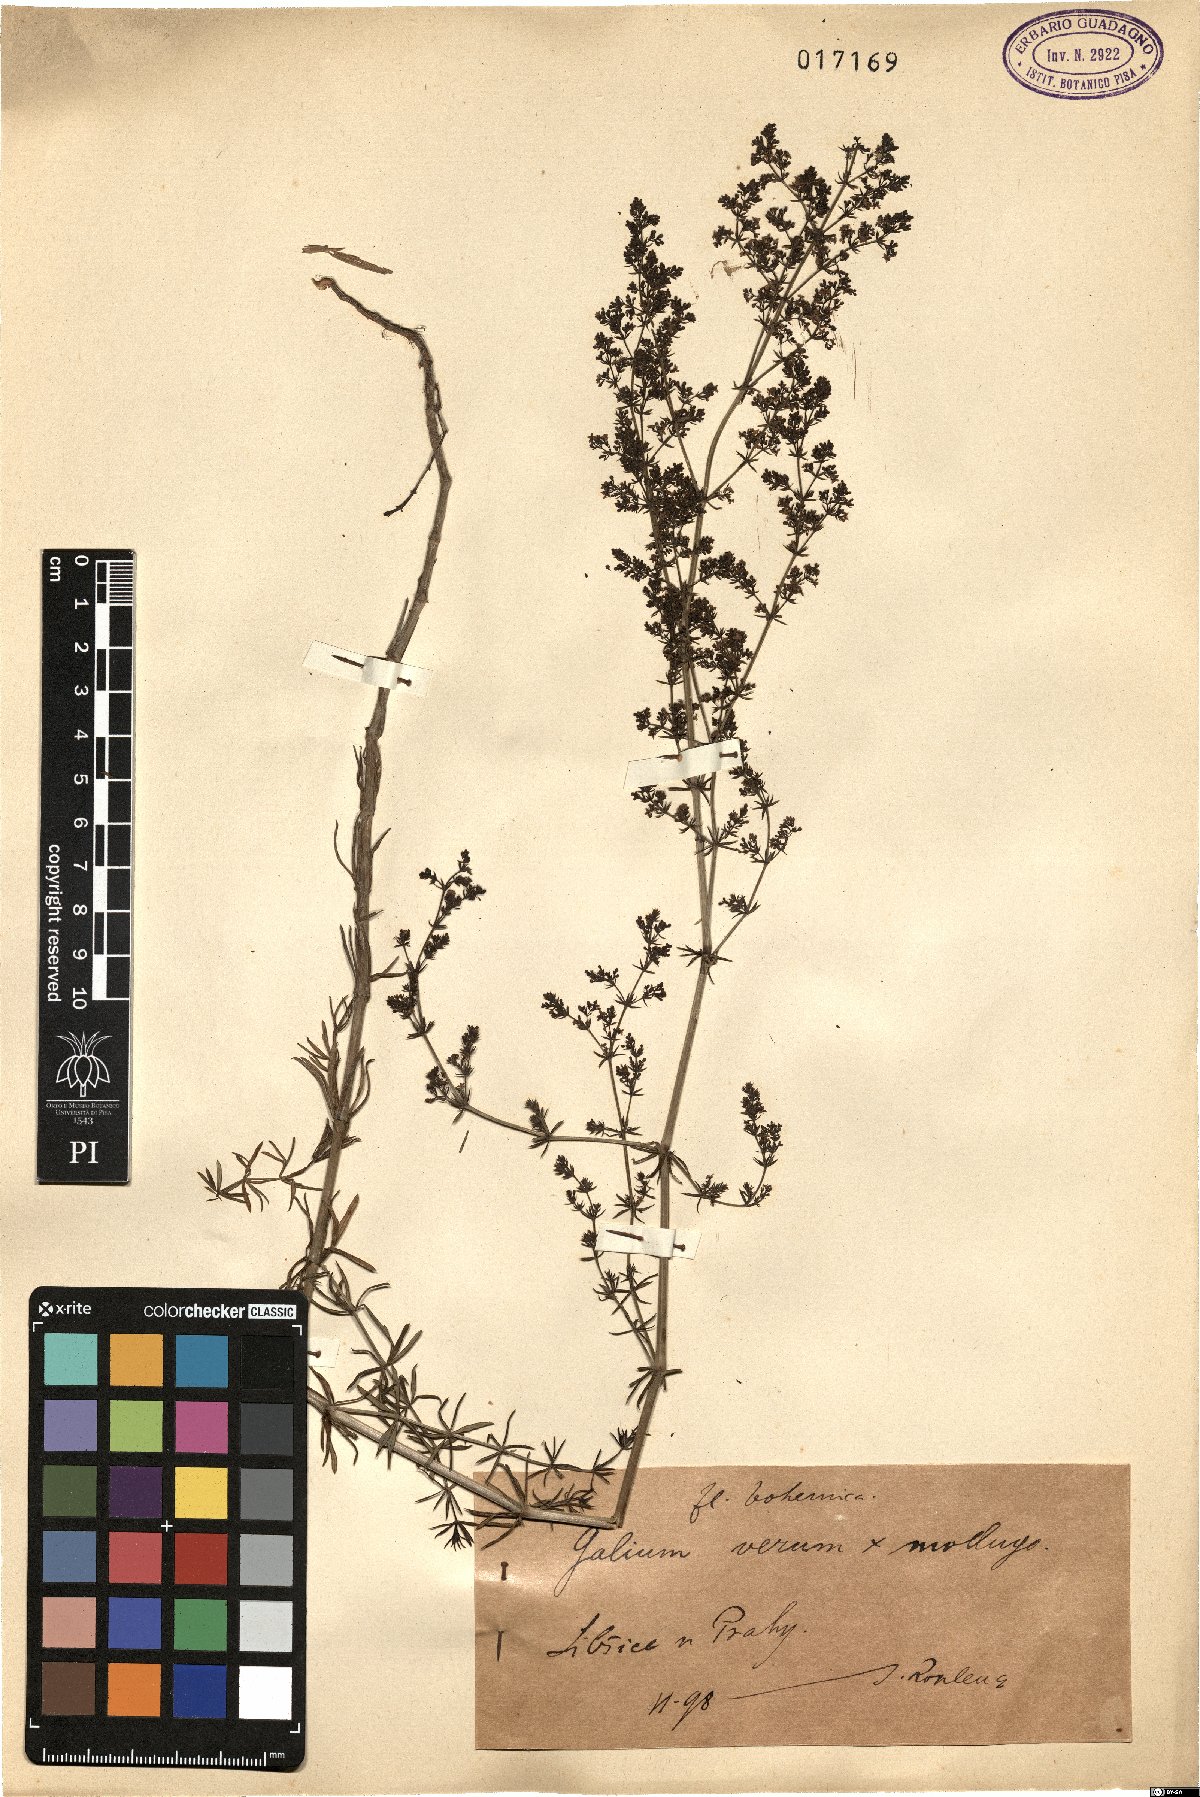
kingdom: Plantae
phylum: Tracheophyta
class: Magnoliopsida
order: Gentianales
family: Rubiaceae
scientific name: Rubiaceae
